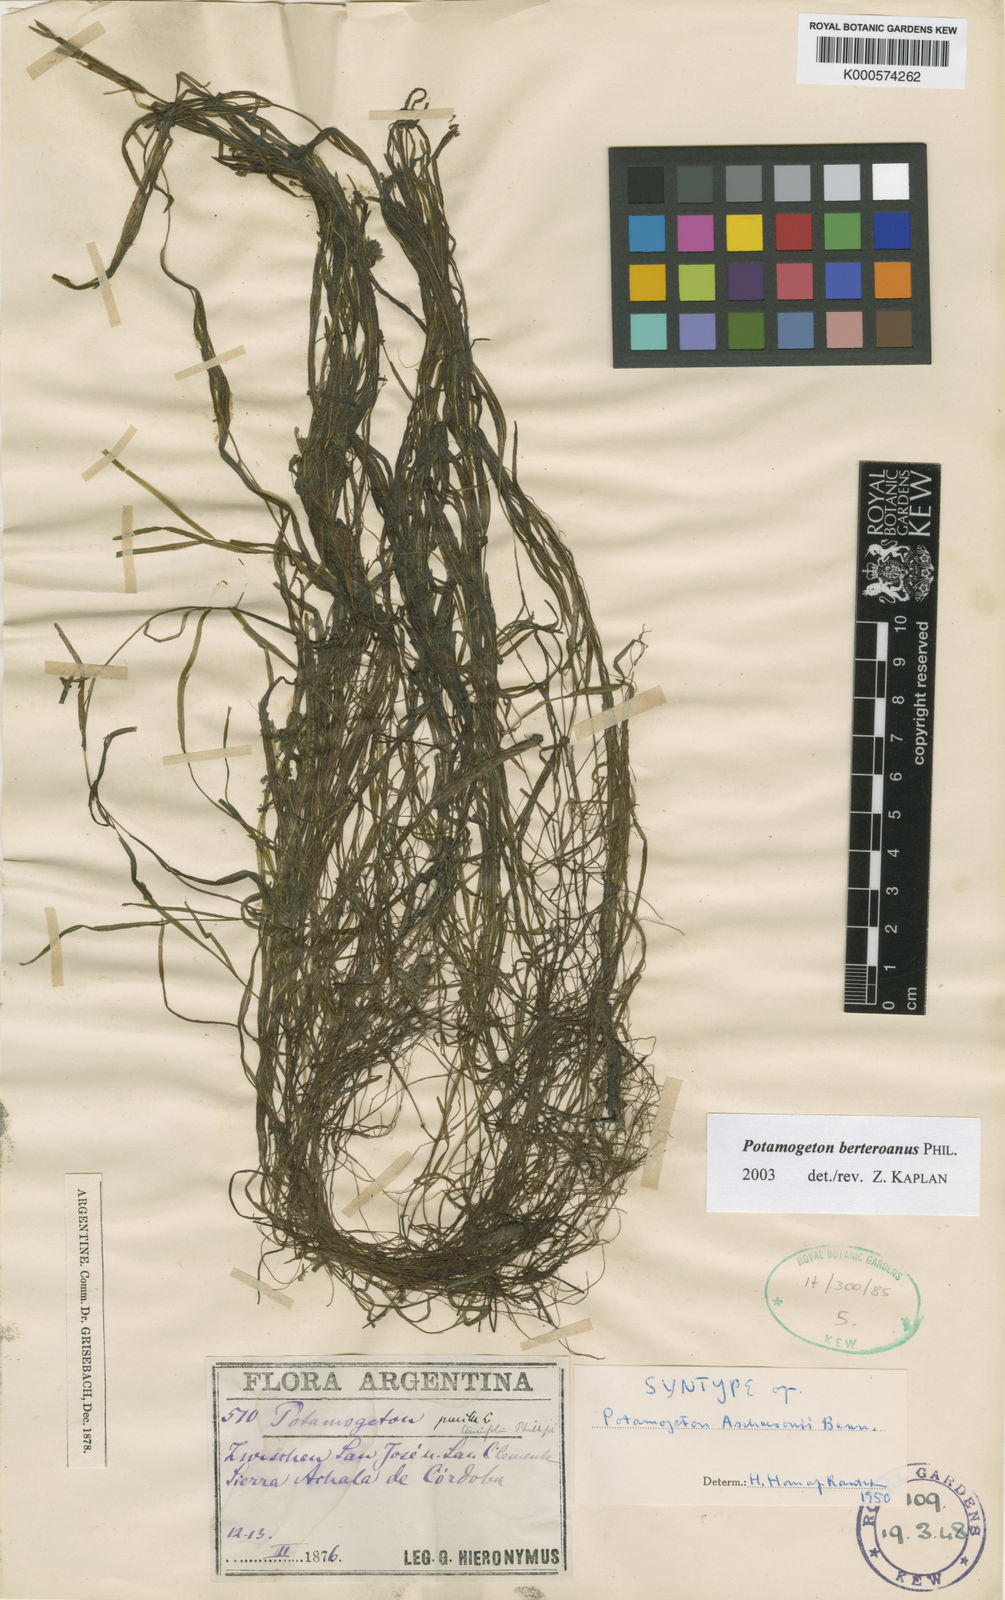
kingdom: Plantae
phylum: Tracheophyta
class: Liliopsida
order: Alismatales
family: Potamogetonaceae
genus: Potamogeton
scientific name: Potamogeton pusillus
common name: Lesser pondweed
